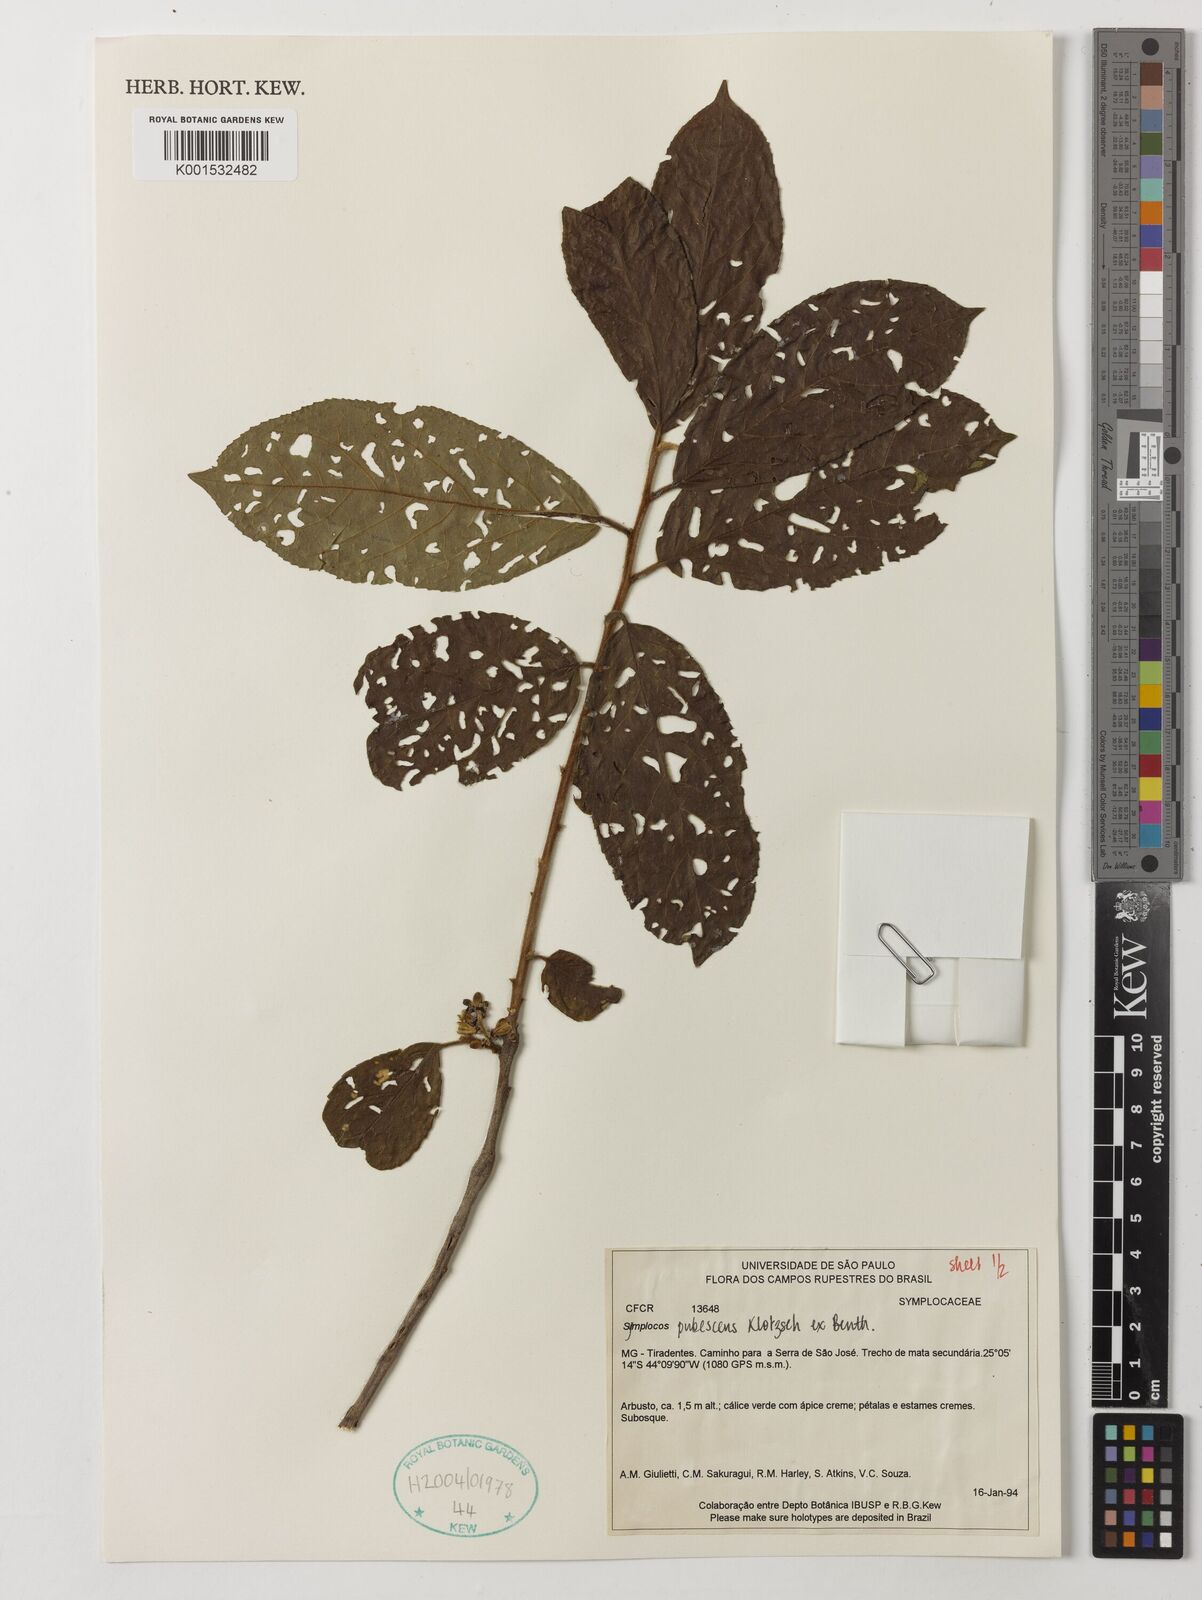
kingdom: Plantae
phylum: Tracheophyta
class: Magnoliopsida
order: Ericales
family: Symplocaceae
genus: Symplocos
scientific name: Symplocos pubescens
